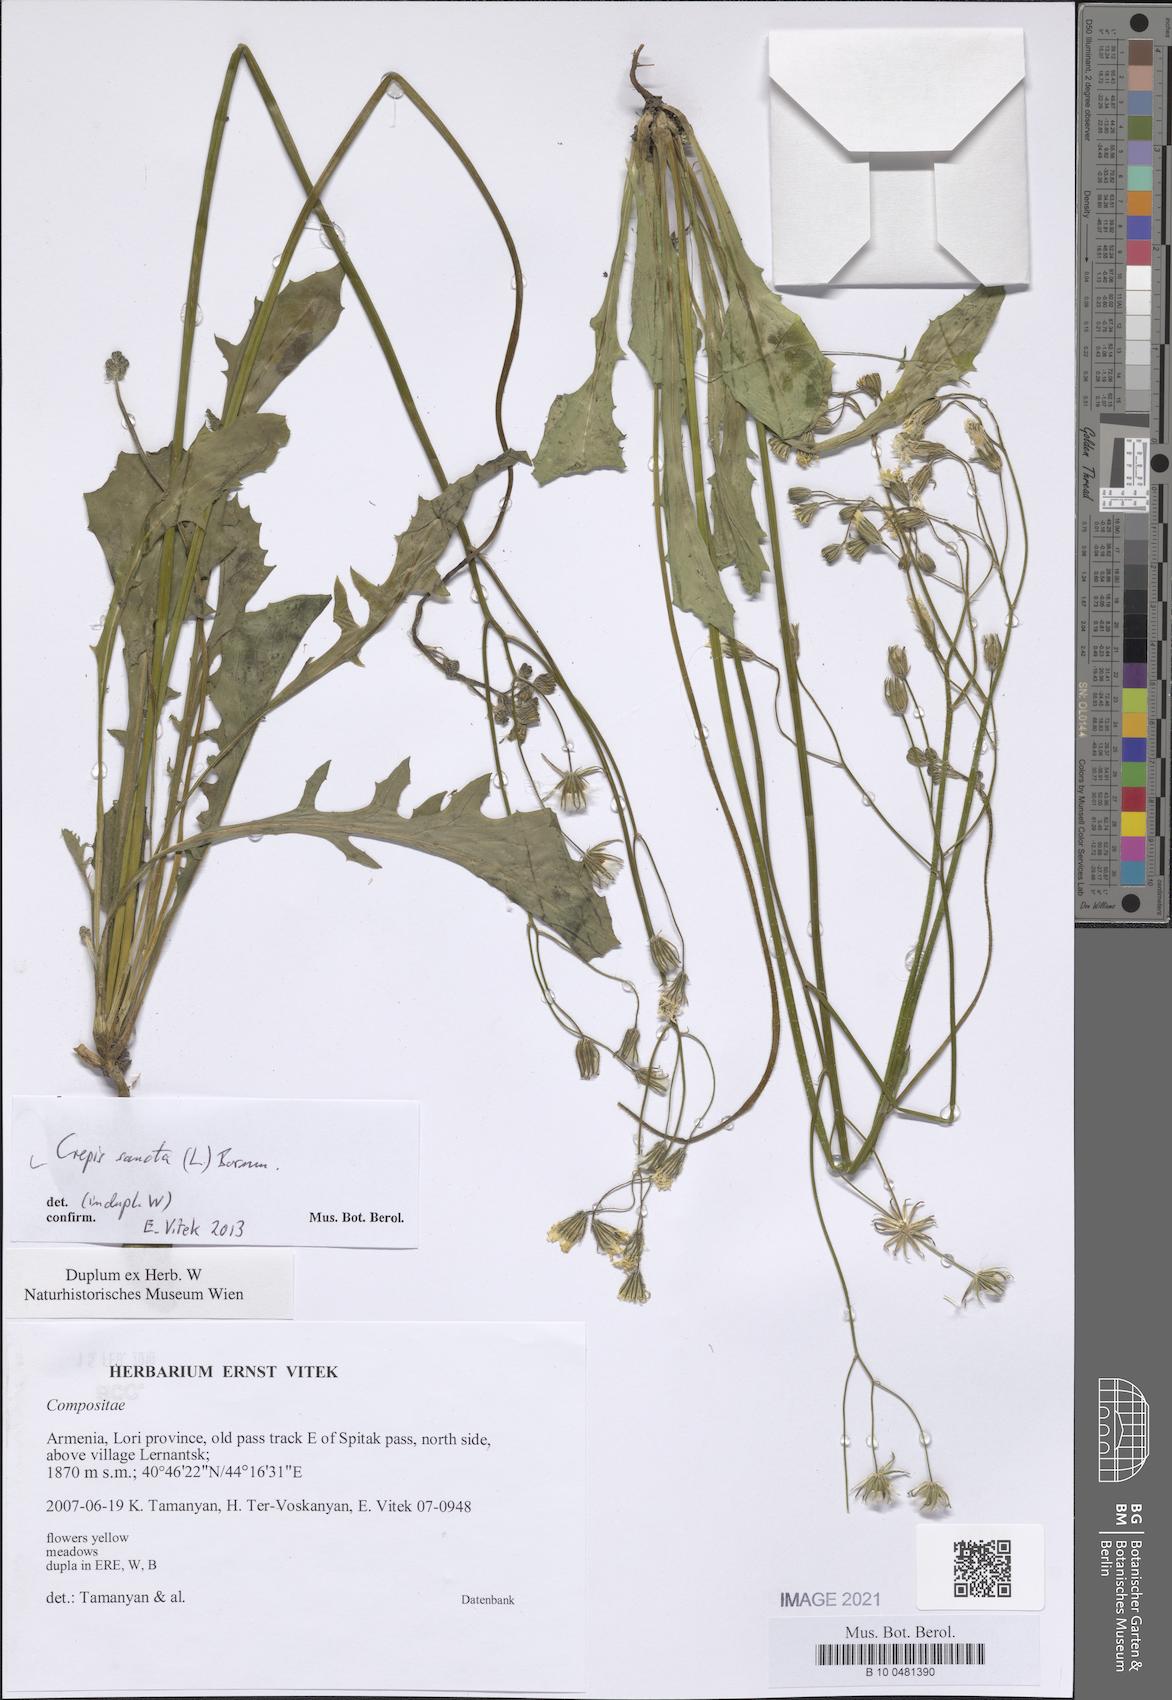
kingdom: Plantae
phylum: Tracheophyta
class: Magnoliopsida
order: Asterales
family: Asteraceae
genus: Crepis
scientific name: Crepis sancta
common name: Hawk's-beard
